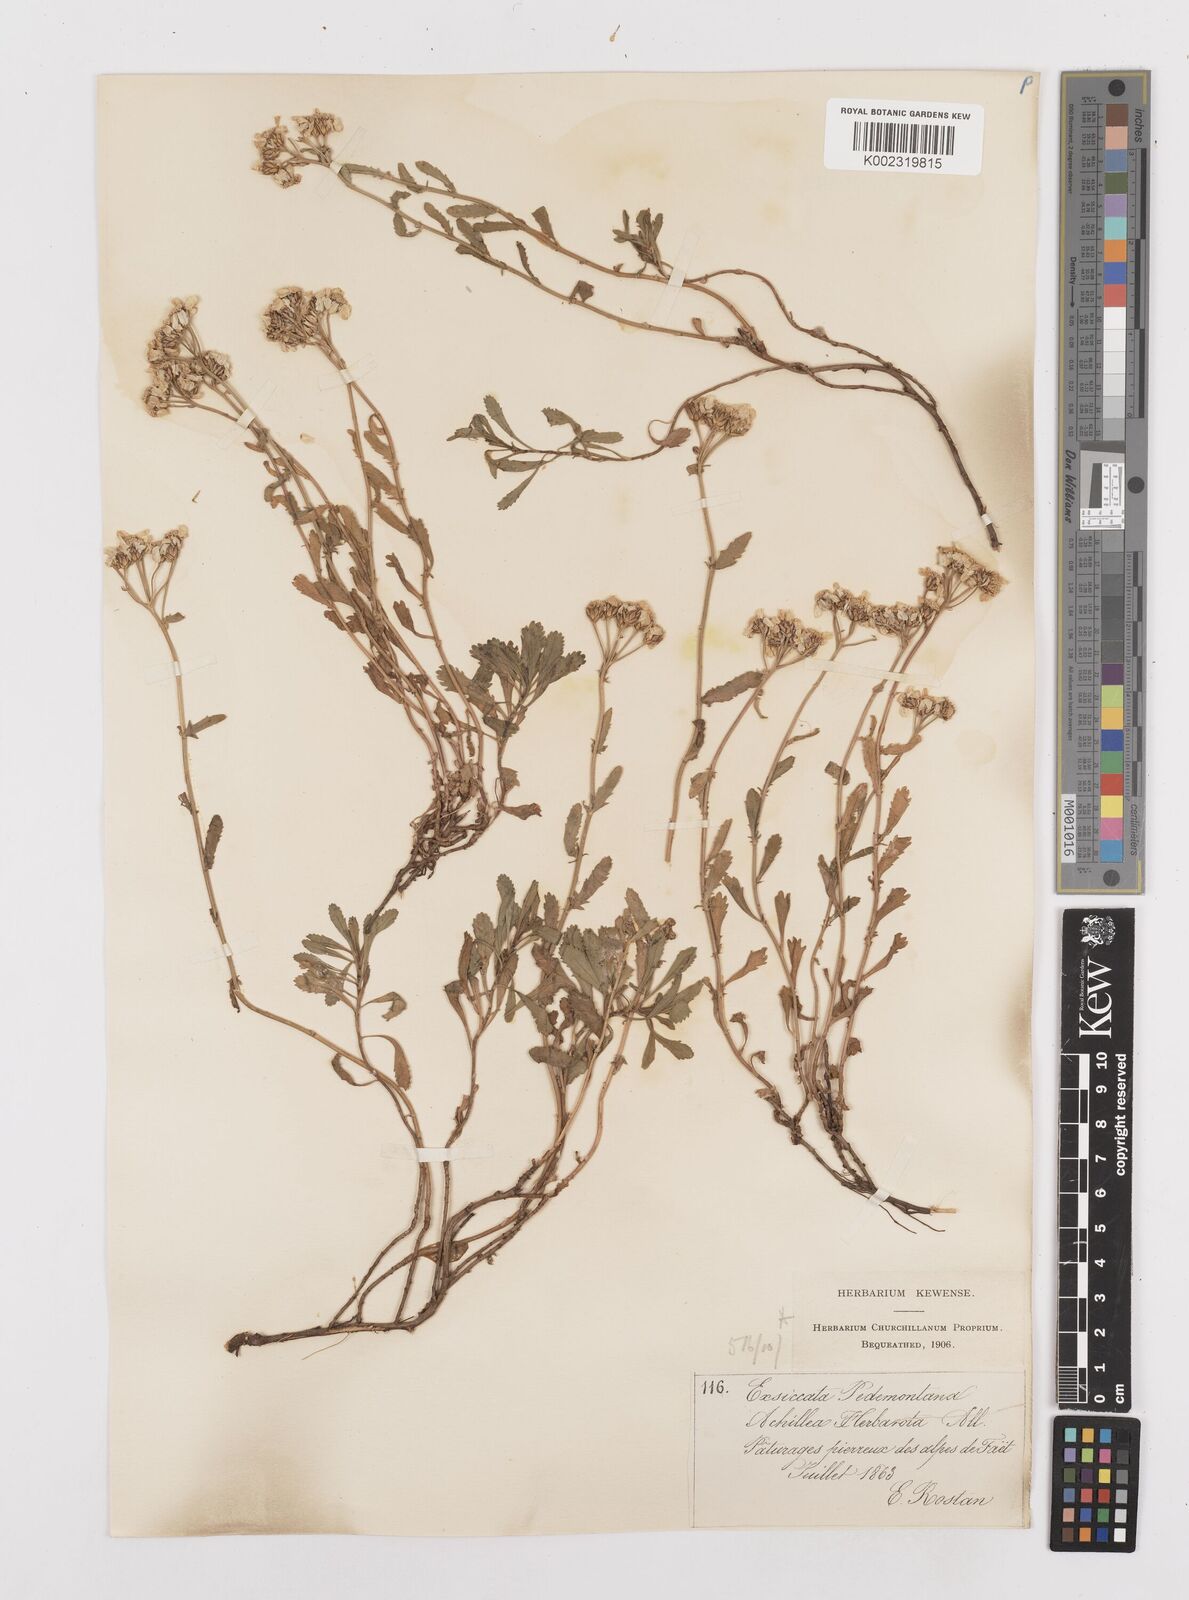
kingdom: Plantae
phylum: Tracheophyta
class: Magnoliopsida
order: Asterales
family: Asteraceae
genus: Achillea
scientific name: Achillea erba-rotta
